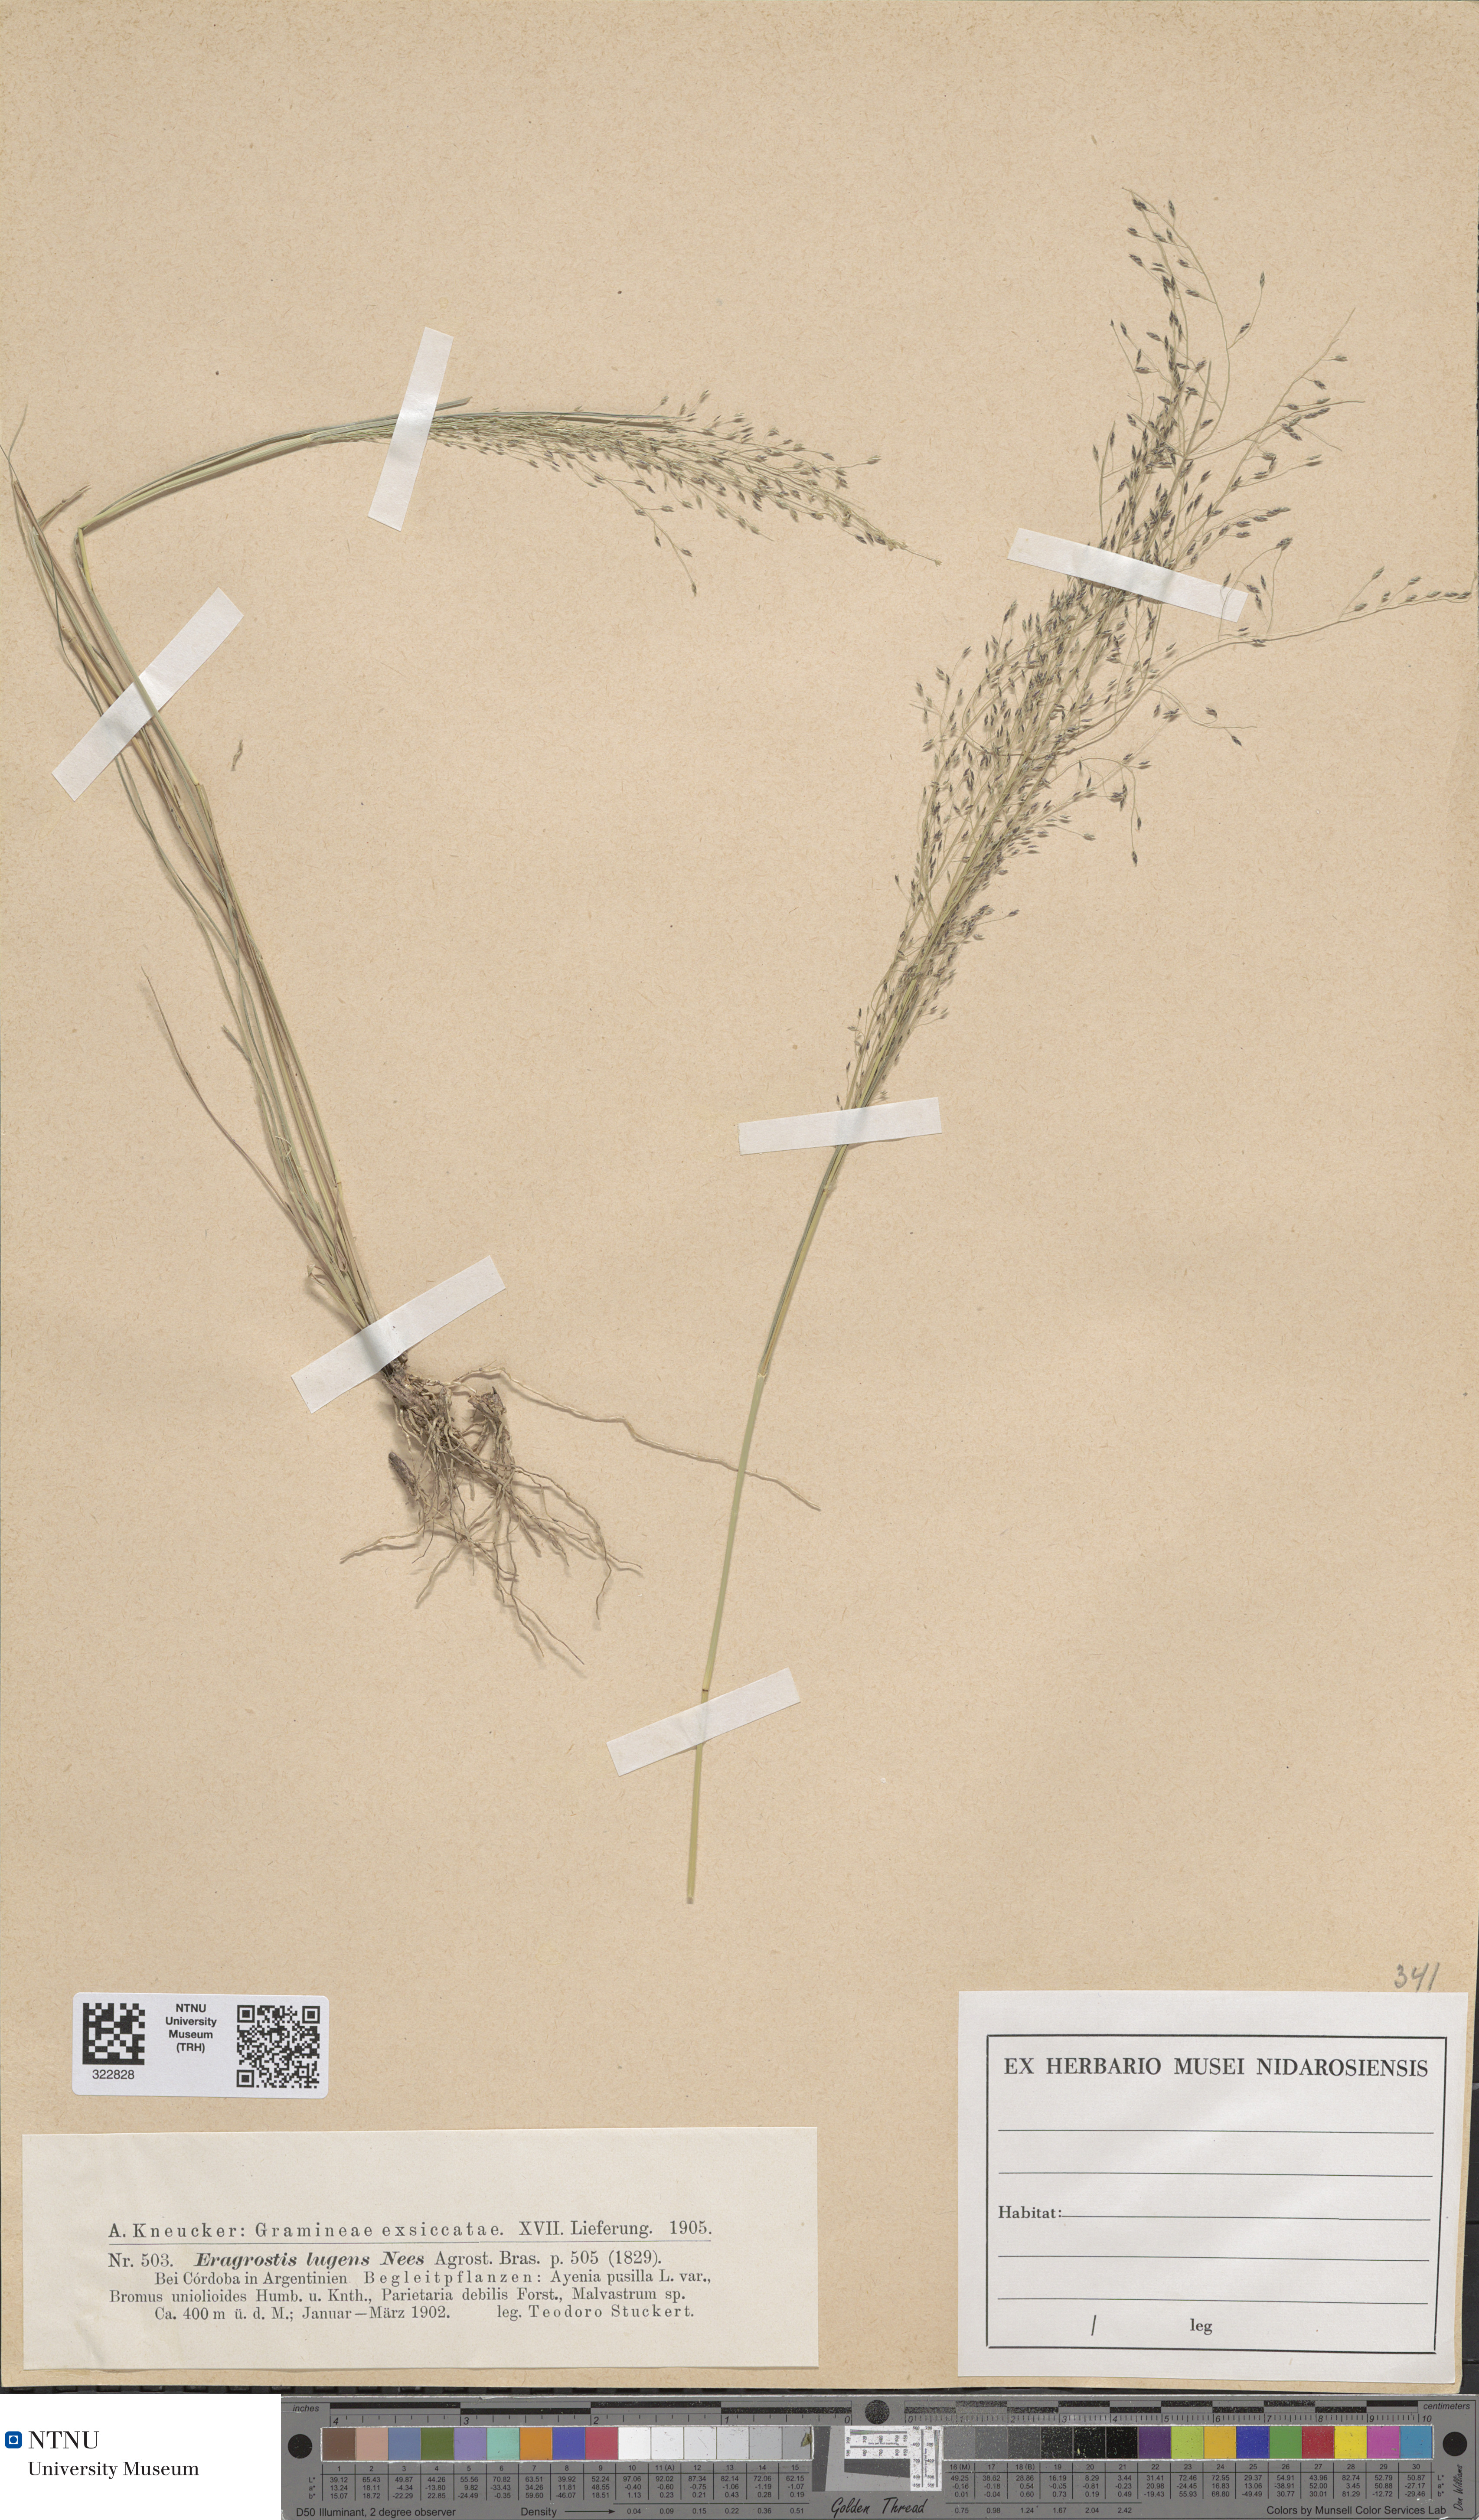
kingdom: Plantae
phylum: Tracheophyta
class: Liliopsida
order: Poales
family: Poaceae
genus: Eragrostis
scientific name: Eragrostis lugens
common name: Mourning love grass
